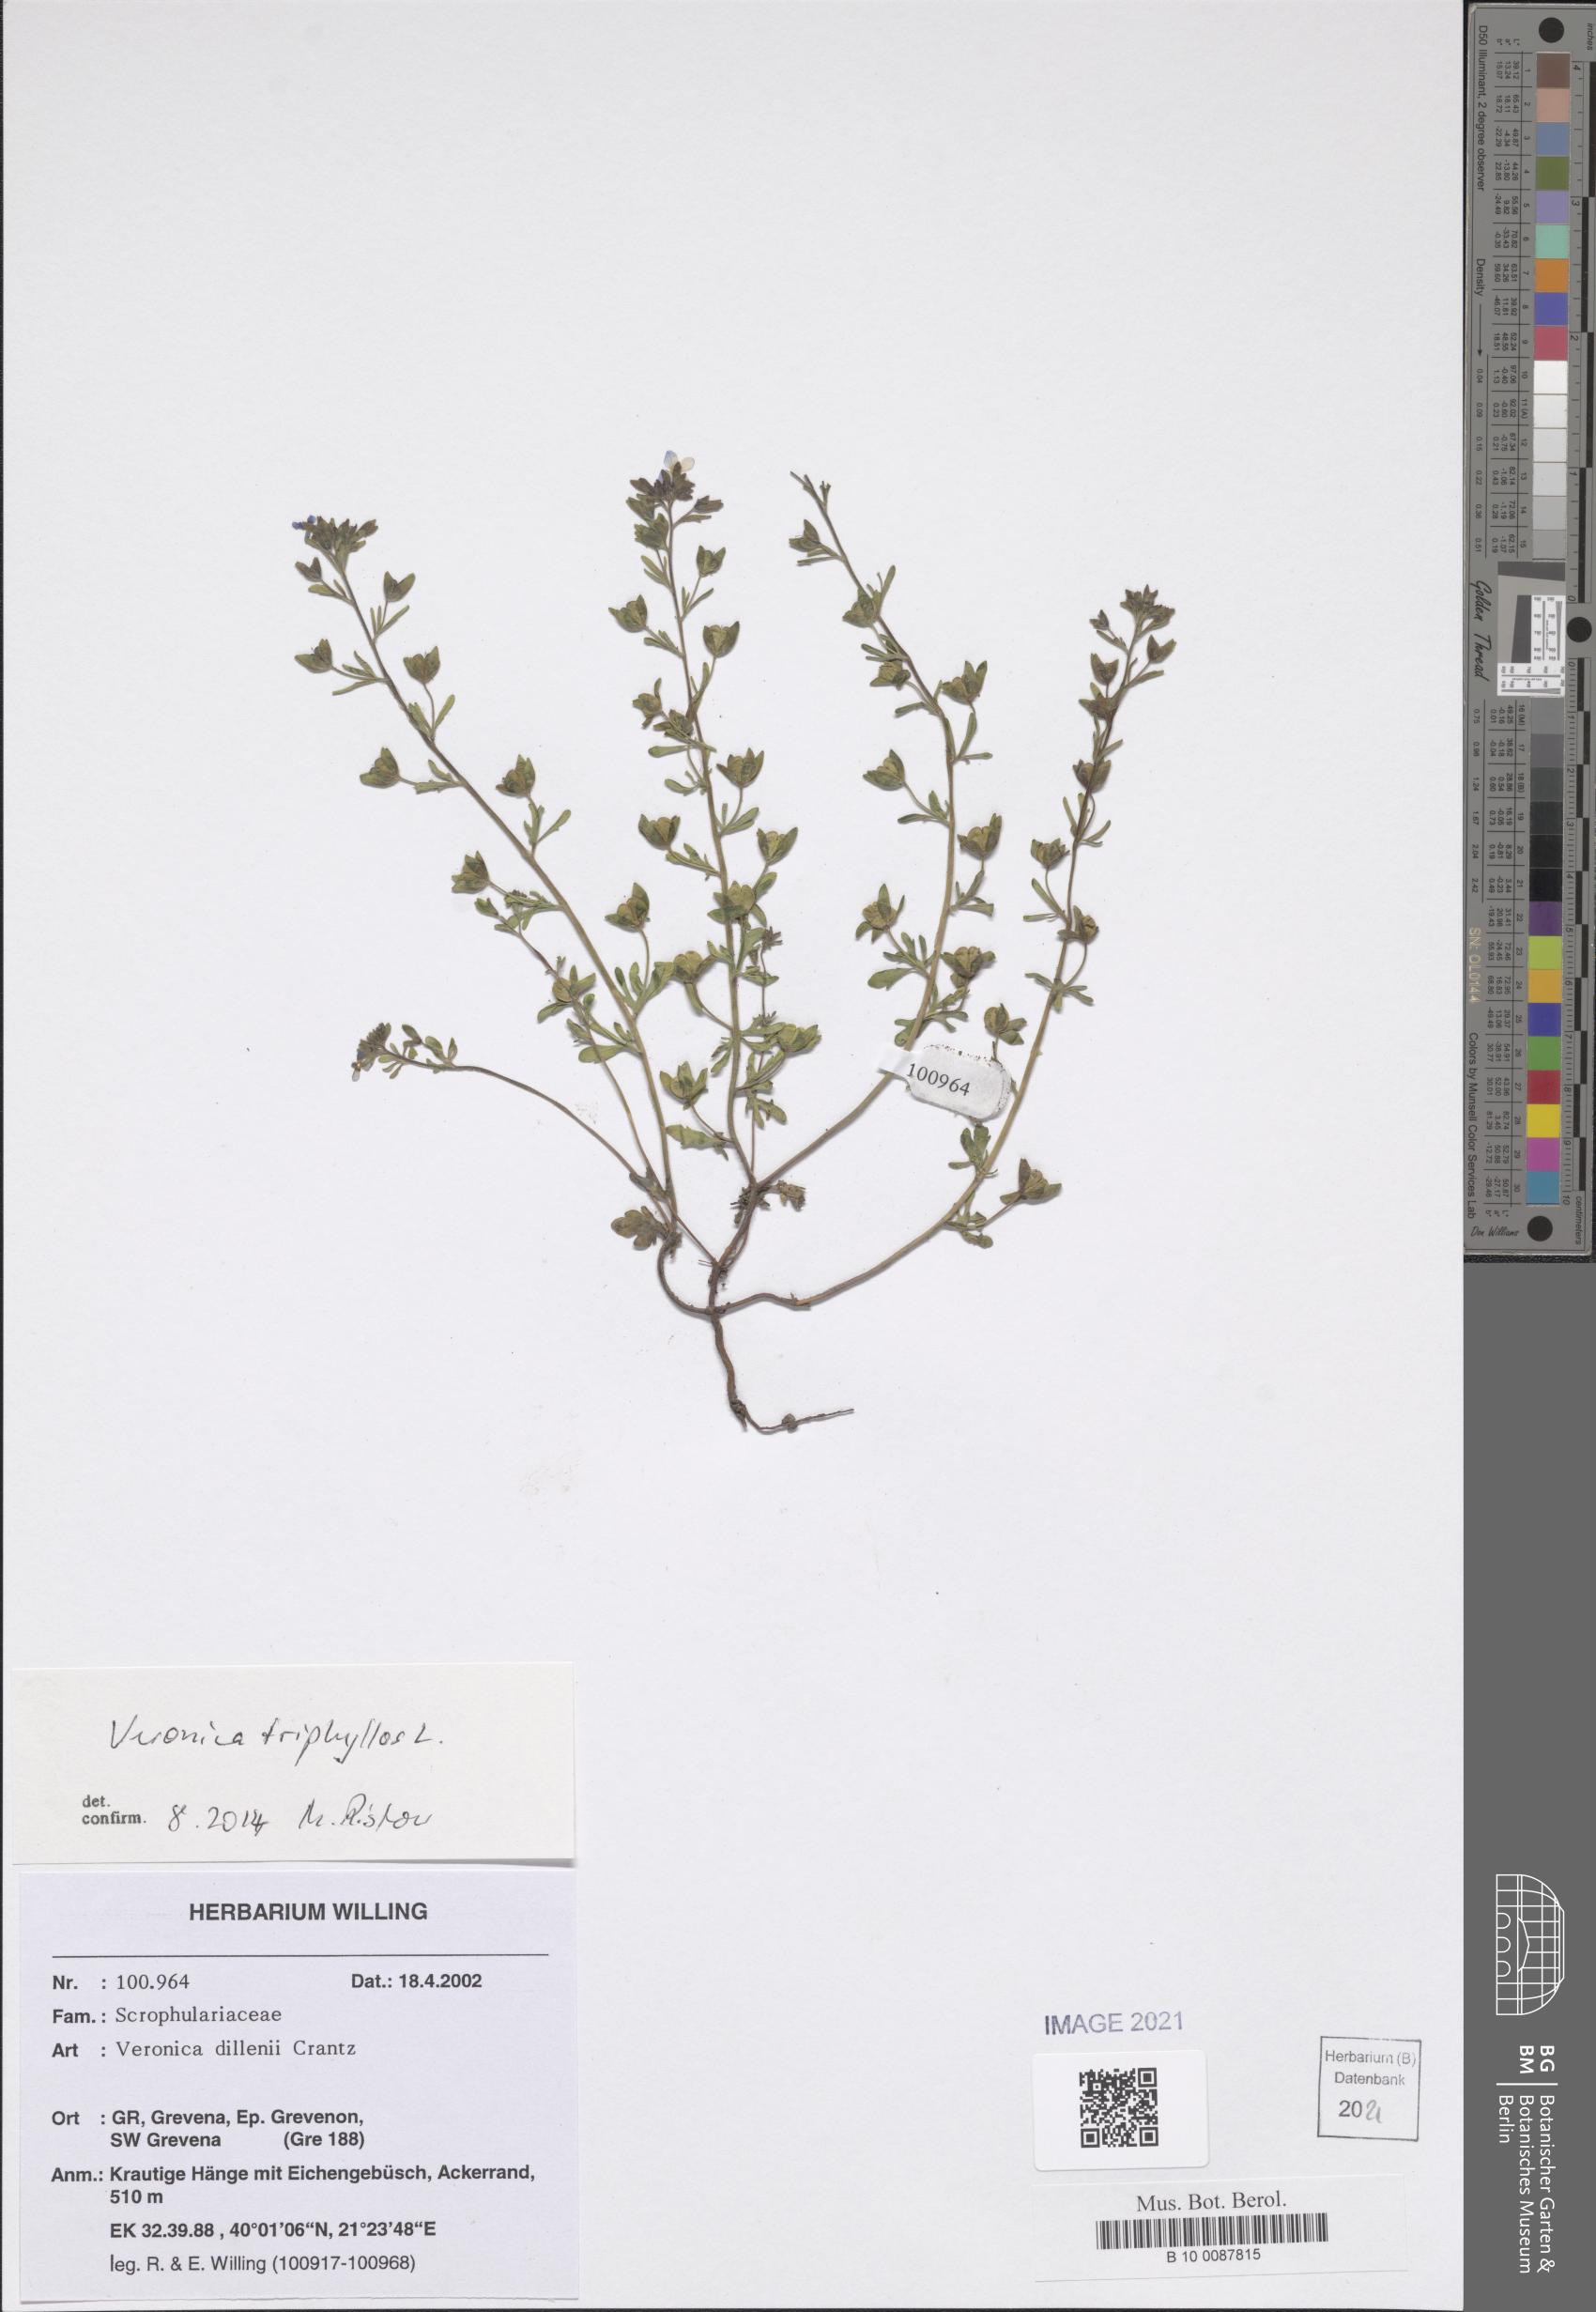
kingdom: Plantae
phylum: Tracheophyta
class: Magnoliopsida
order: Lamiales
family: Plantaginaceae
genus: Veronica
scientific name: Veronica triphyllos
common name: Fingered speedwell
